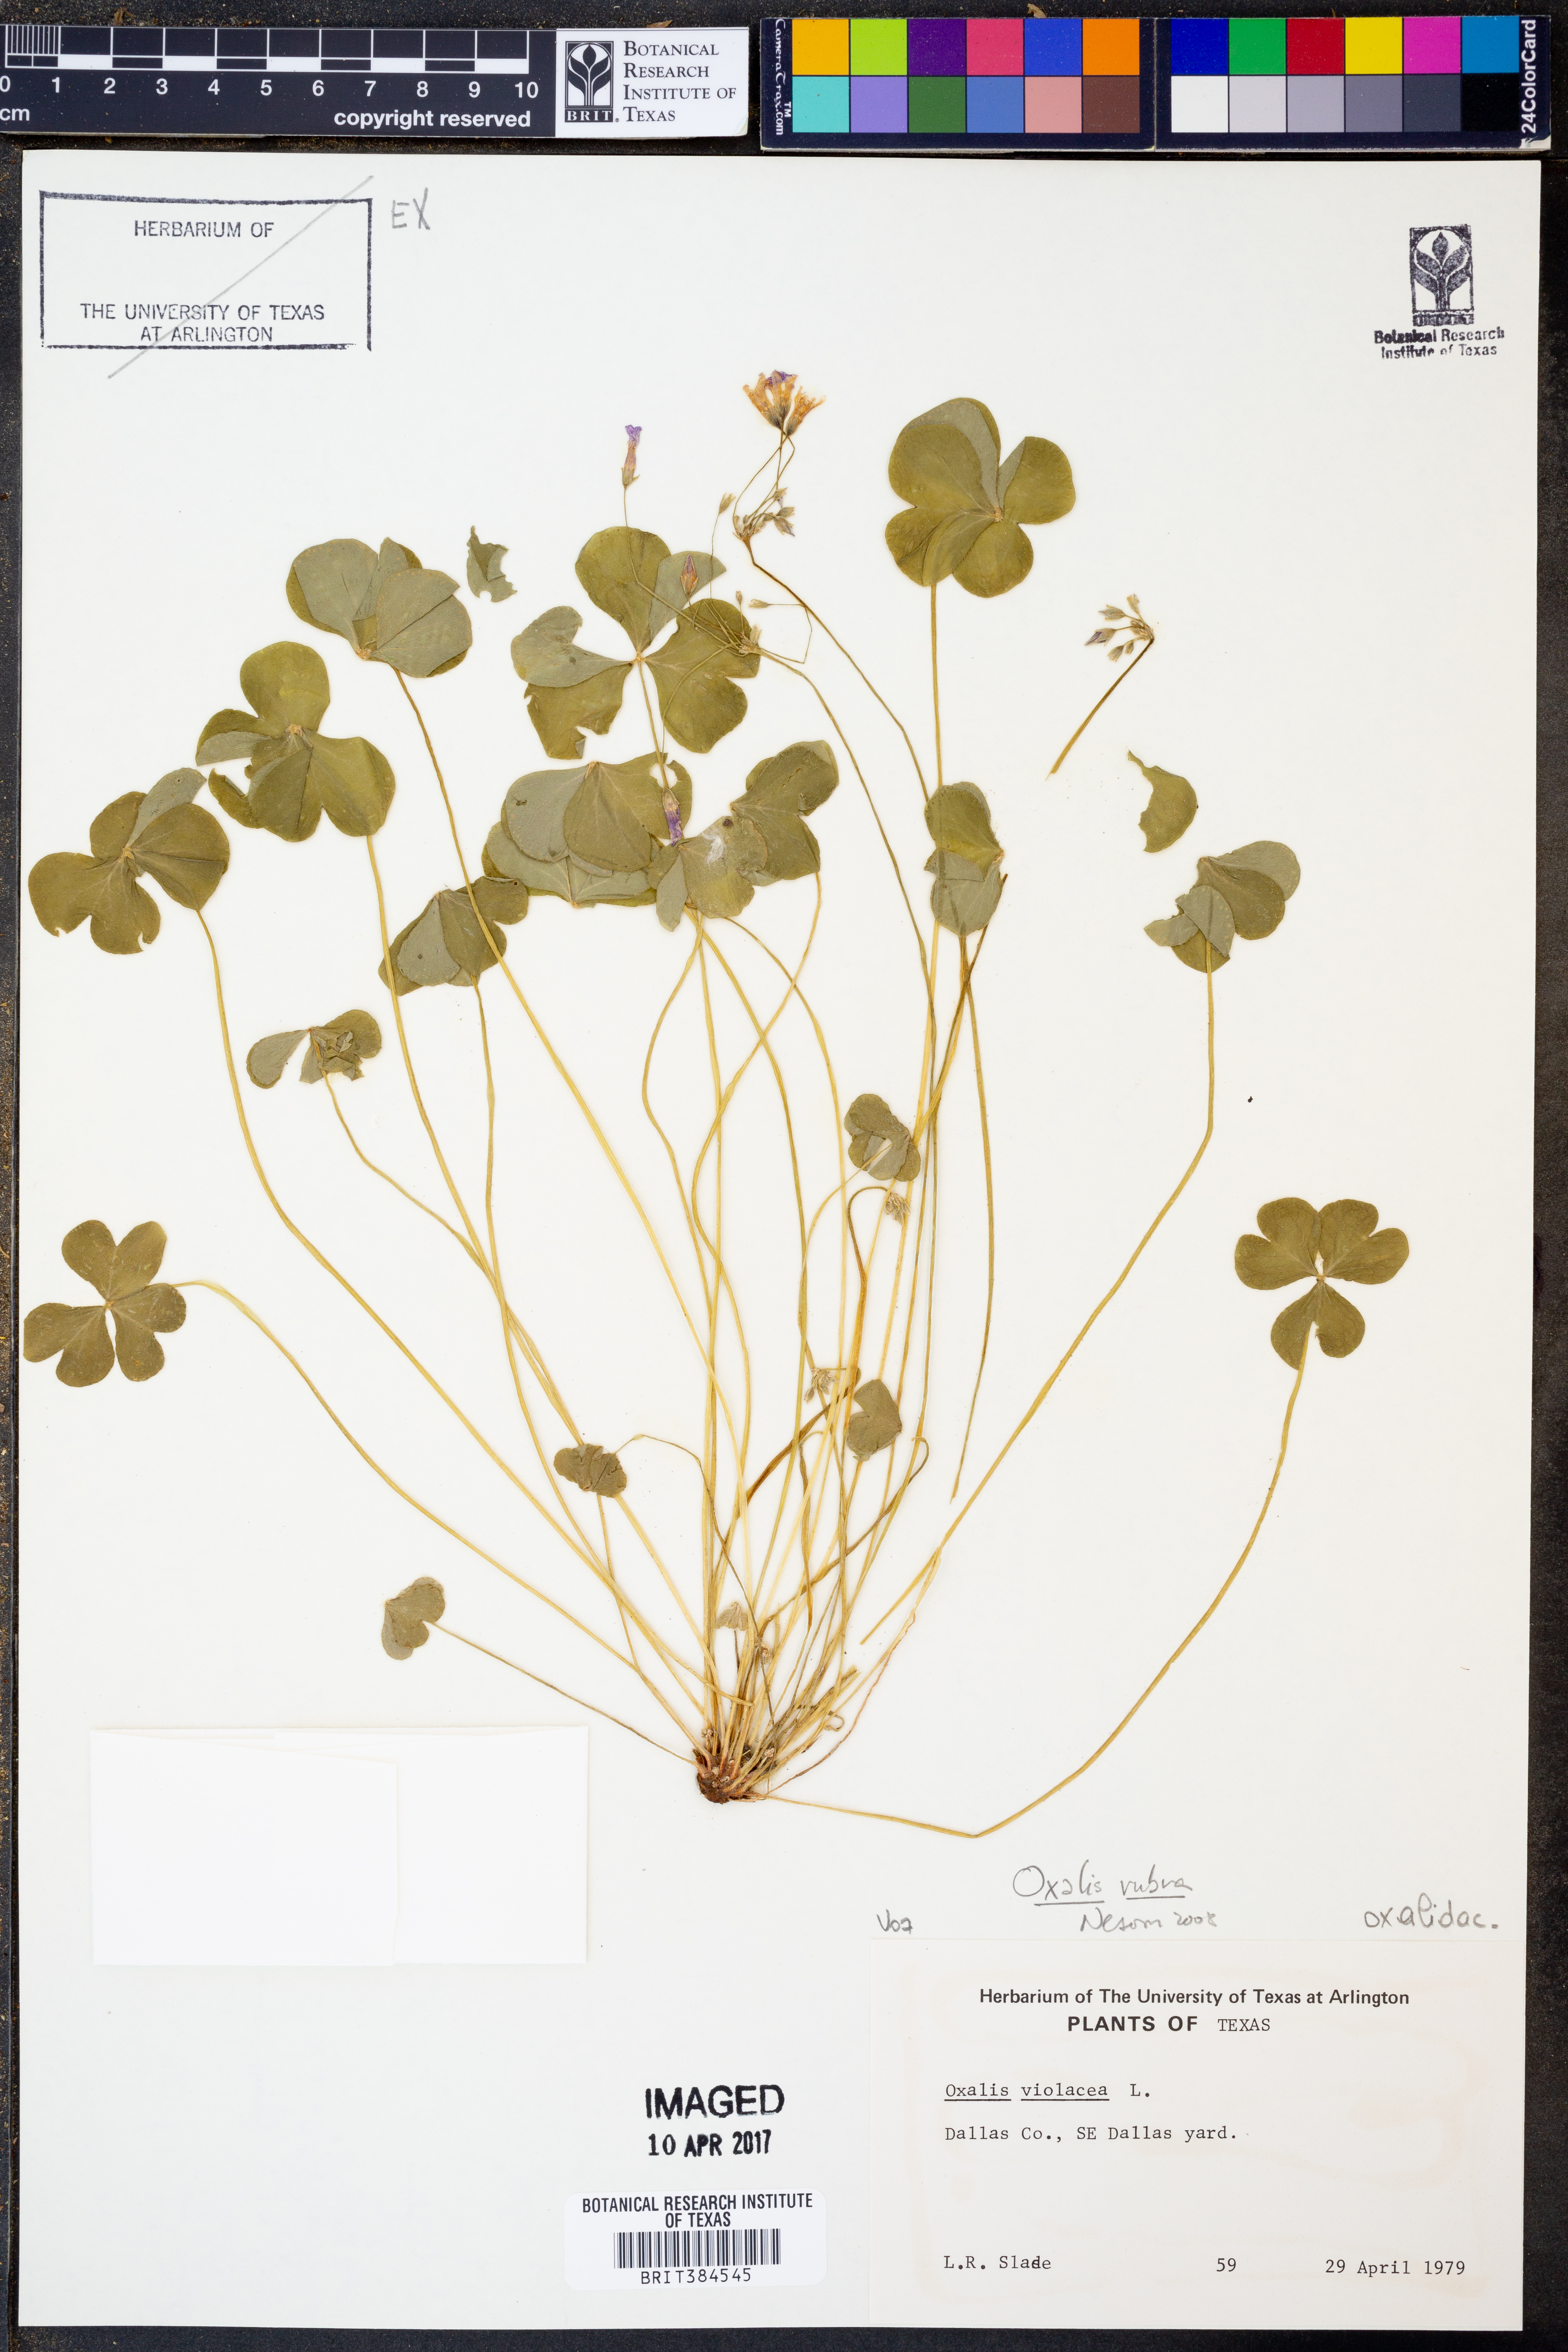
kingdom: Plantae
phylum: Tracheophyta
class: Magnoliopsida
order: Oxalidales
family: Oxalidaceae
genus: Oxalis
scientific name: Oxalis articulata
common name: Pink-sorrel
